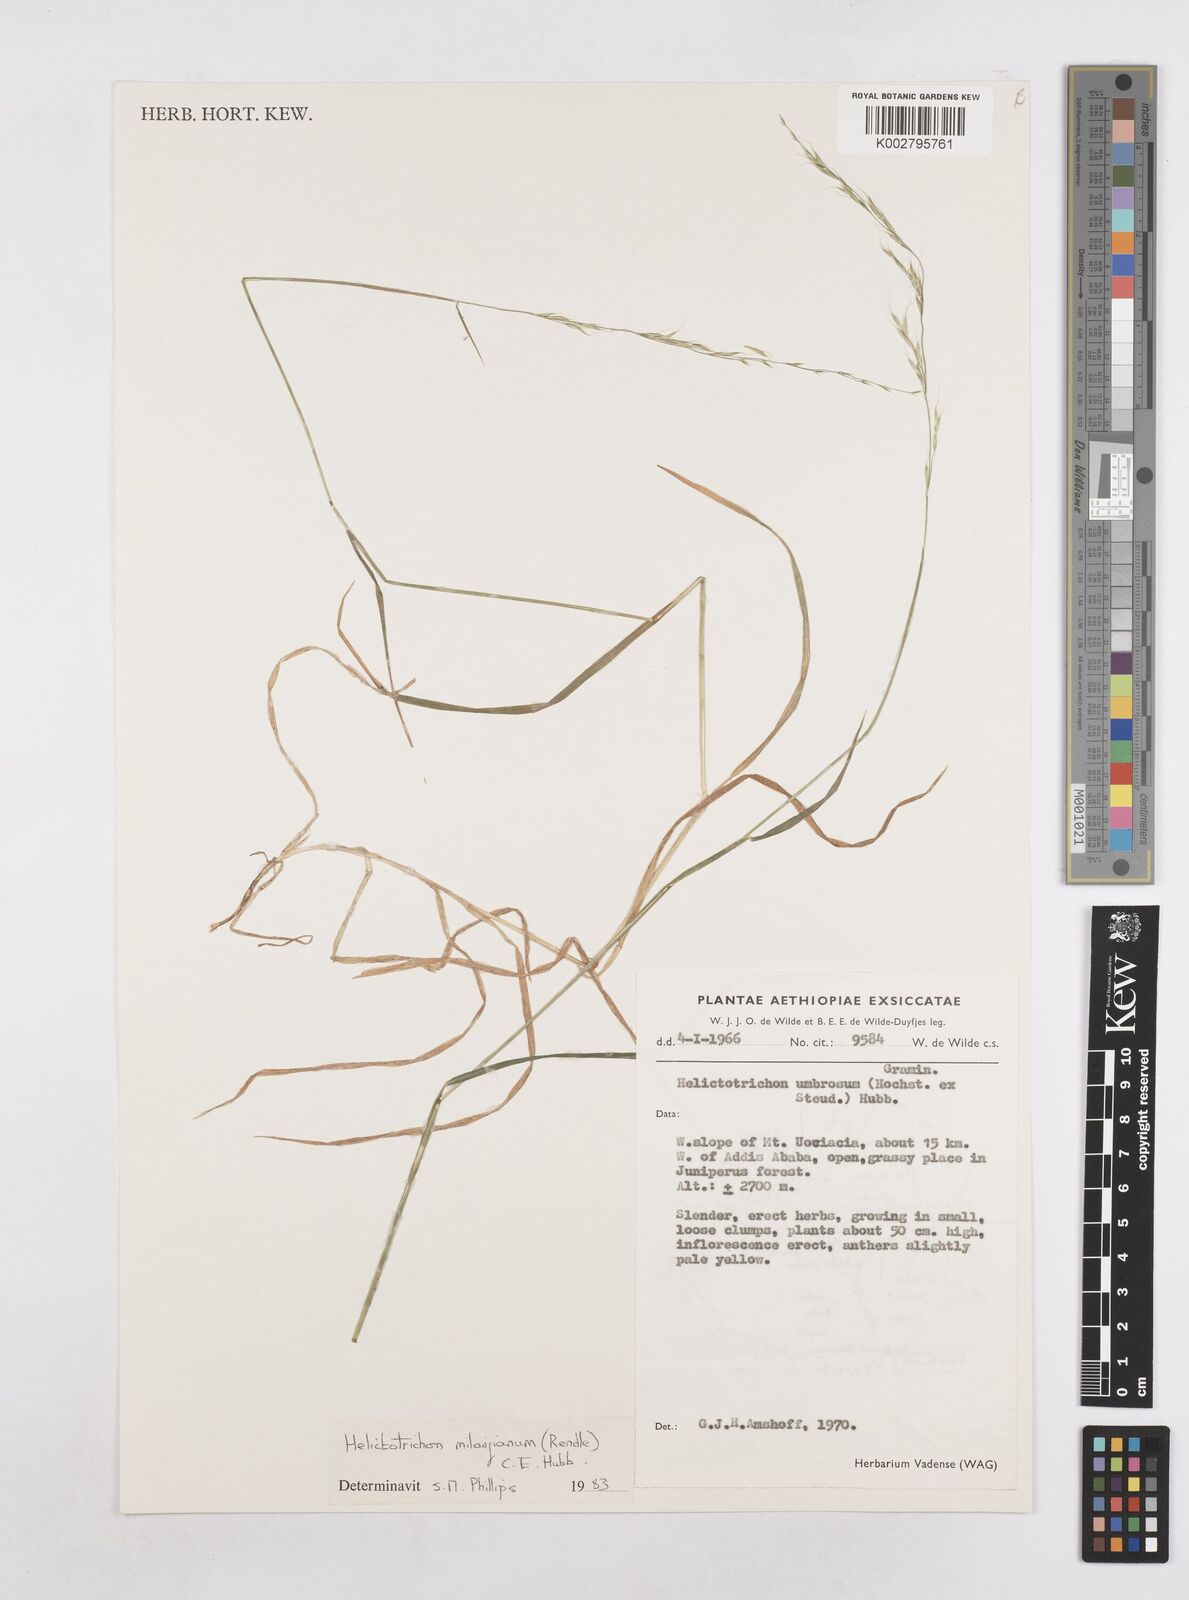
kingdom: Plantae
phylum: Tracheophyta
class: Liliopsida
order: Poales
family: Poaceae
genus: Trisetopsis
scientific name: Trisetopsis milanjiana
